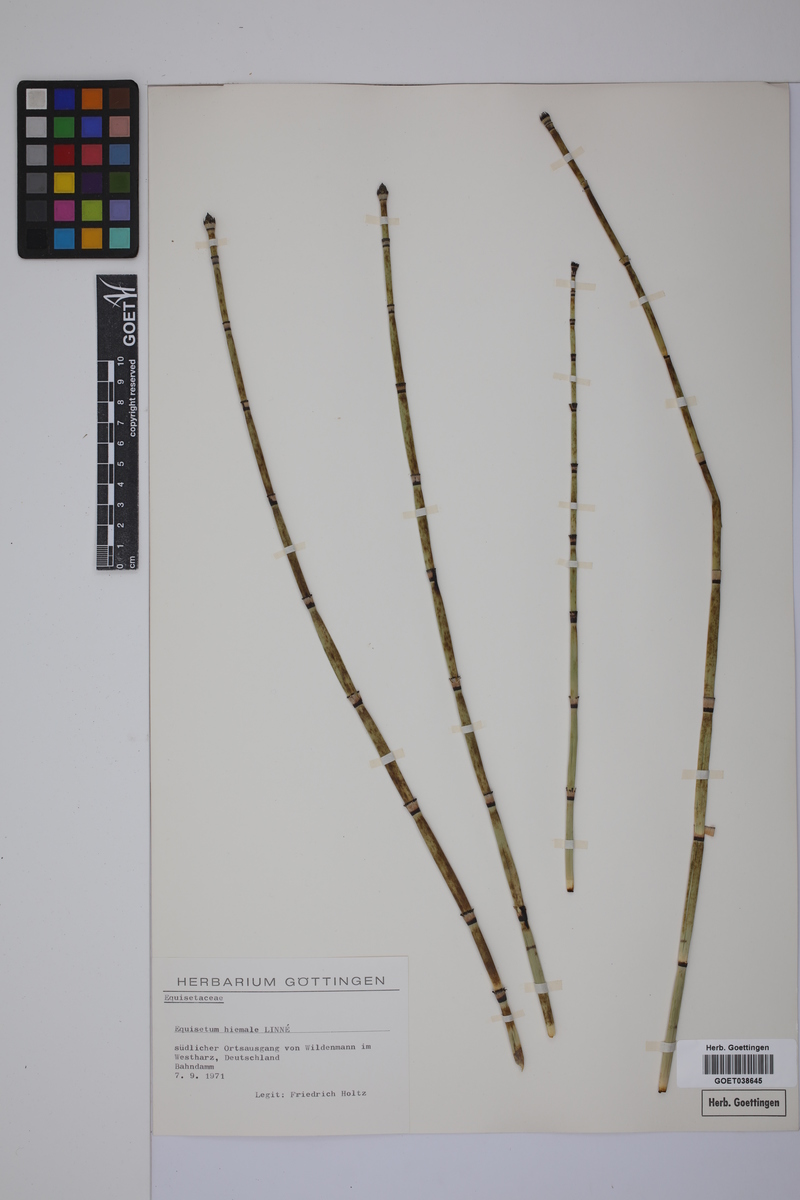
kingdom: Plantae
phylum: Tracheophyta
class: Polypodiopsida
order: Equisetales
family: Equisetaceae
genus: Equisetum
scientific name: Equisetum hyemale
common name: Rough horsetail
